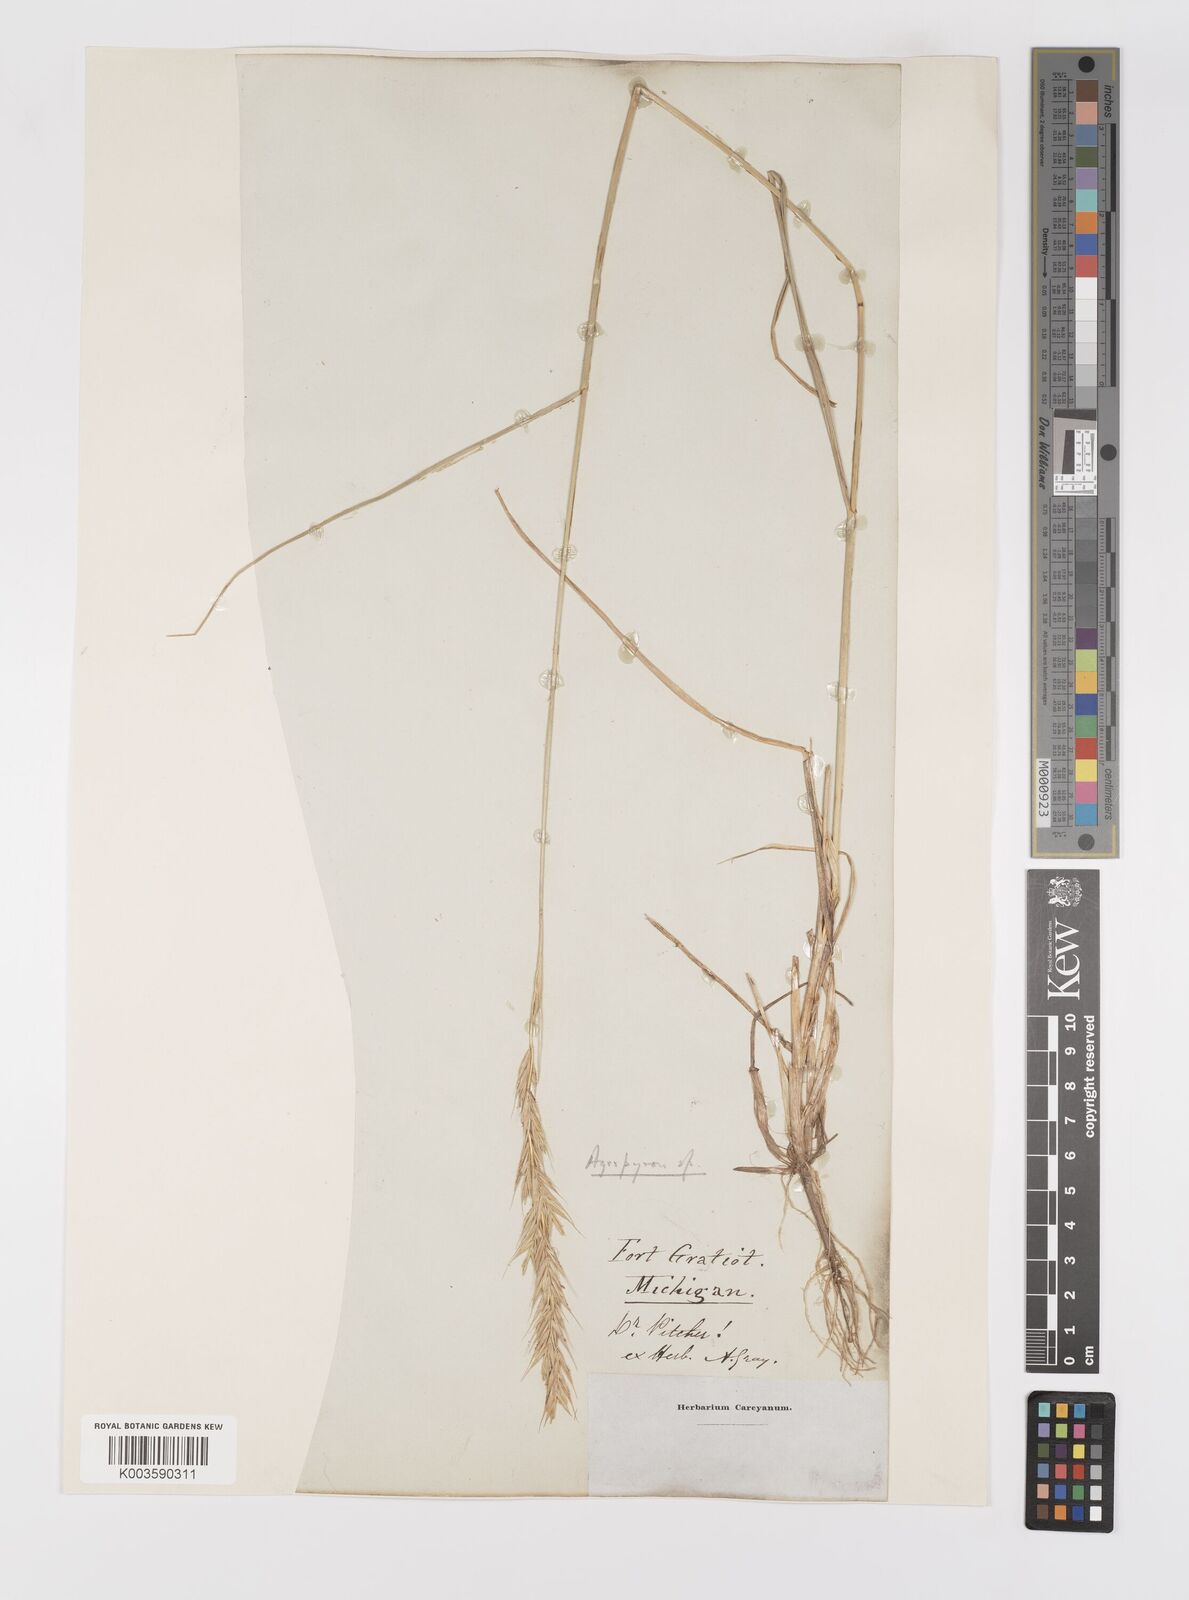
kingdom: Plantae
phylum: Tracheophyta
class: Liliopsida
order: Poales
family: Poaceae
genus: Elymus
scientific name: Elymus
